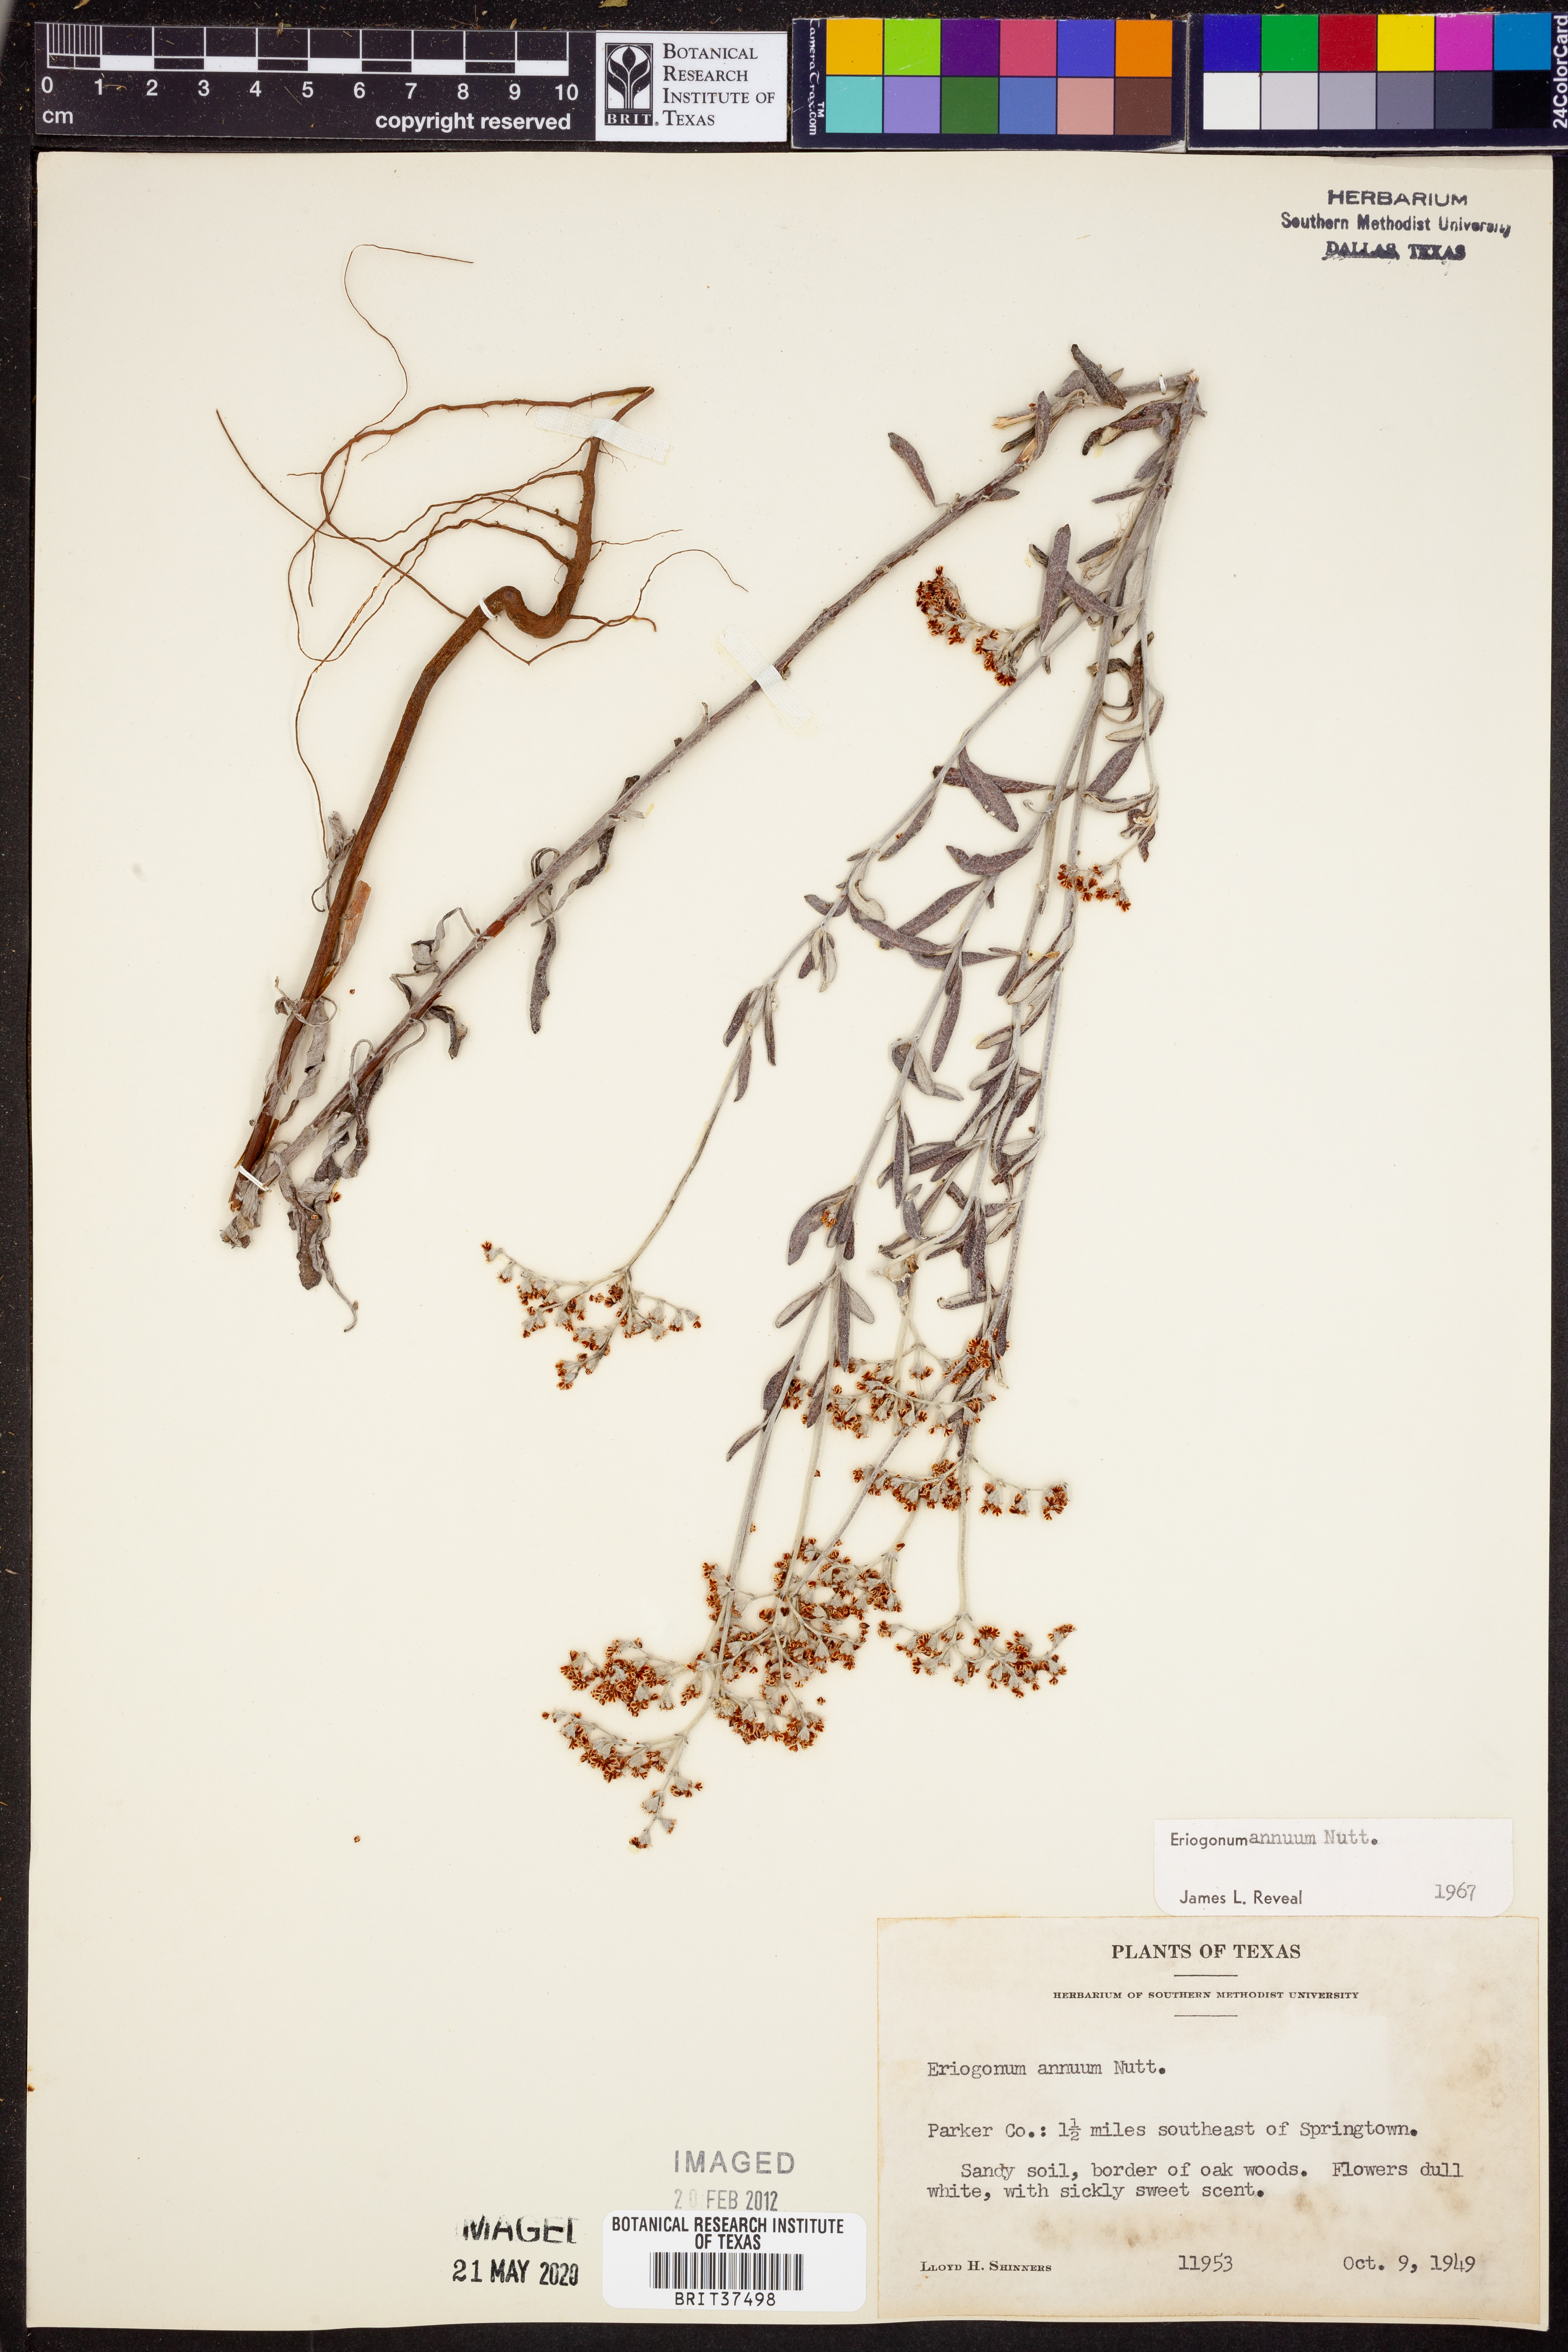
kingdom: Plantae
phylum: Tracheophyta
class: Magnoliopsida
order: Caryophyllales
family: Polygonaceae
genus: Eriogonum
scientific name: Eriogonum annuum
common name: Annual wild buckwheat
